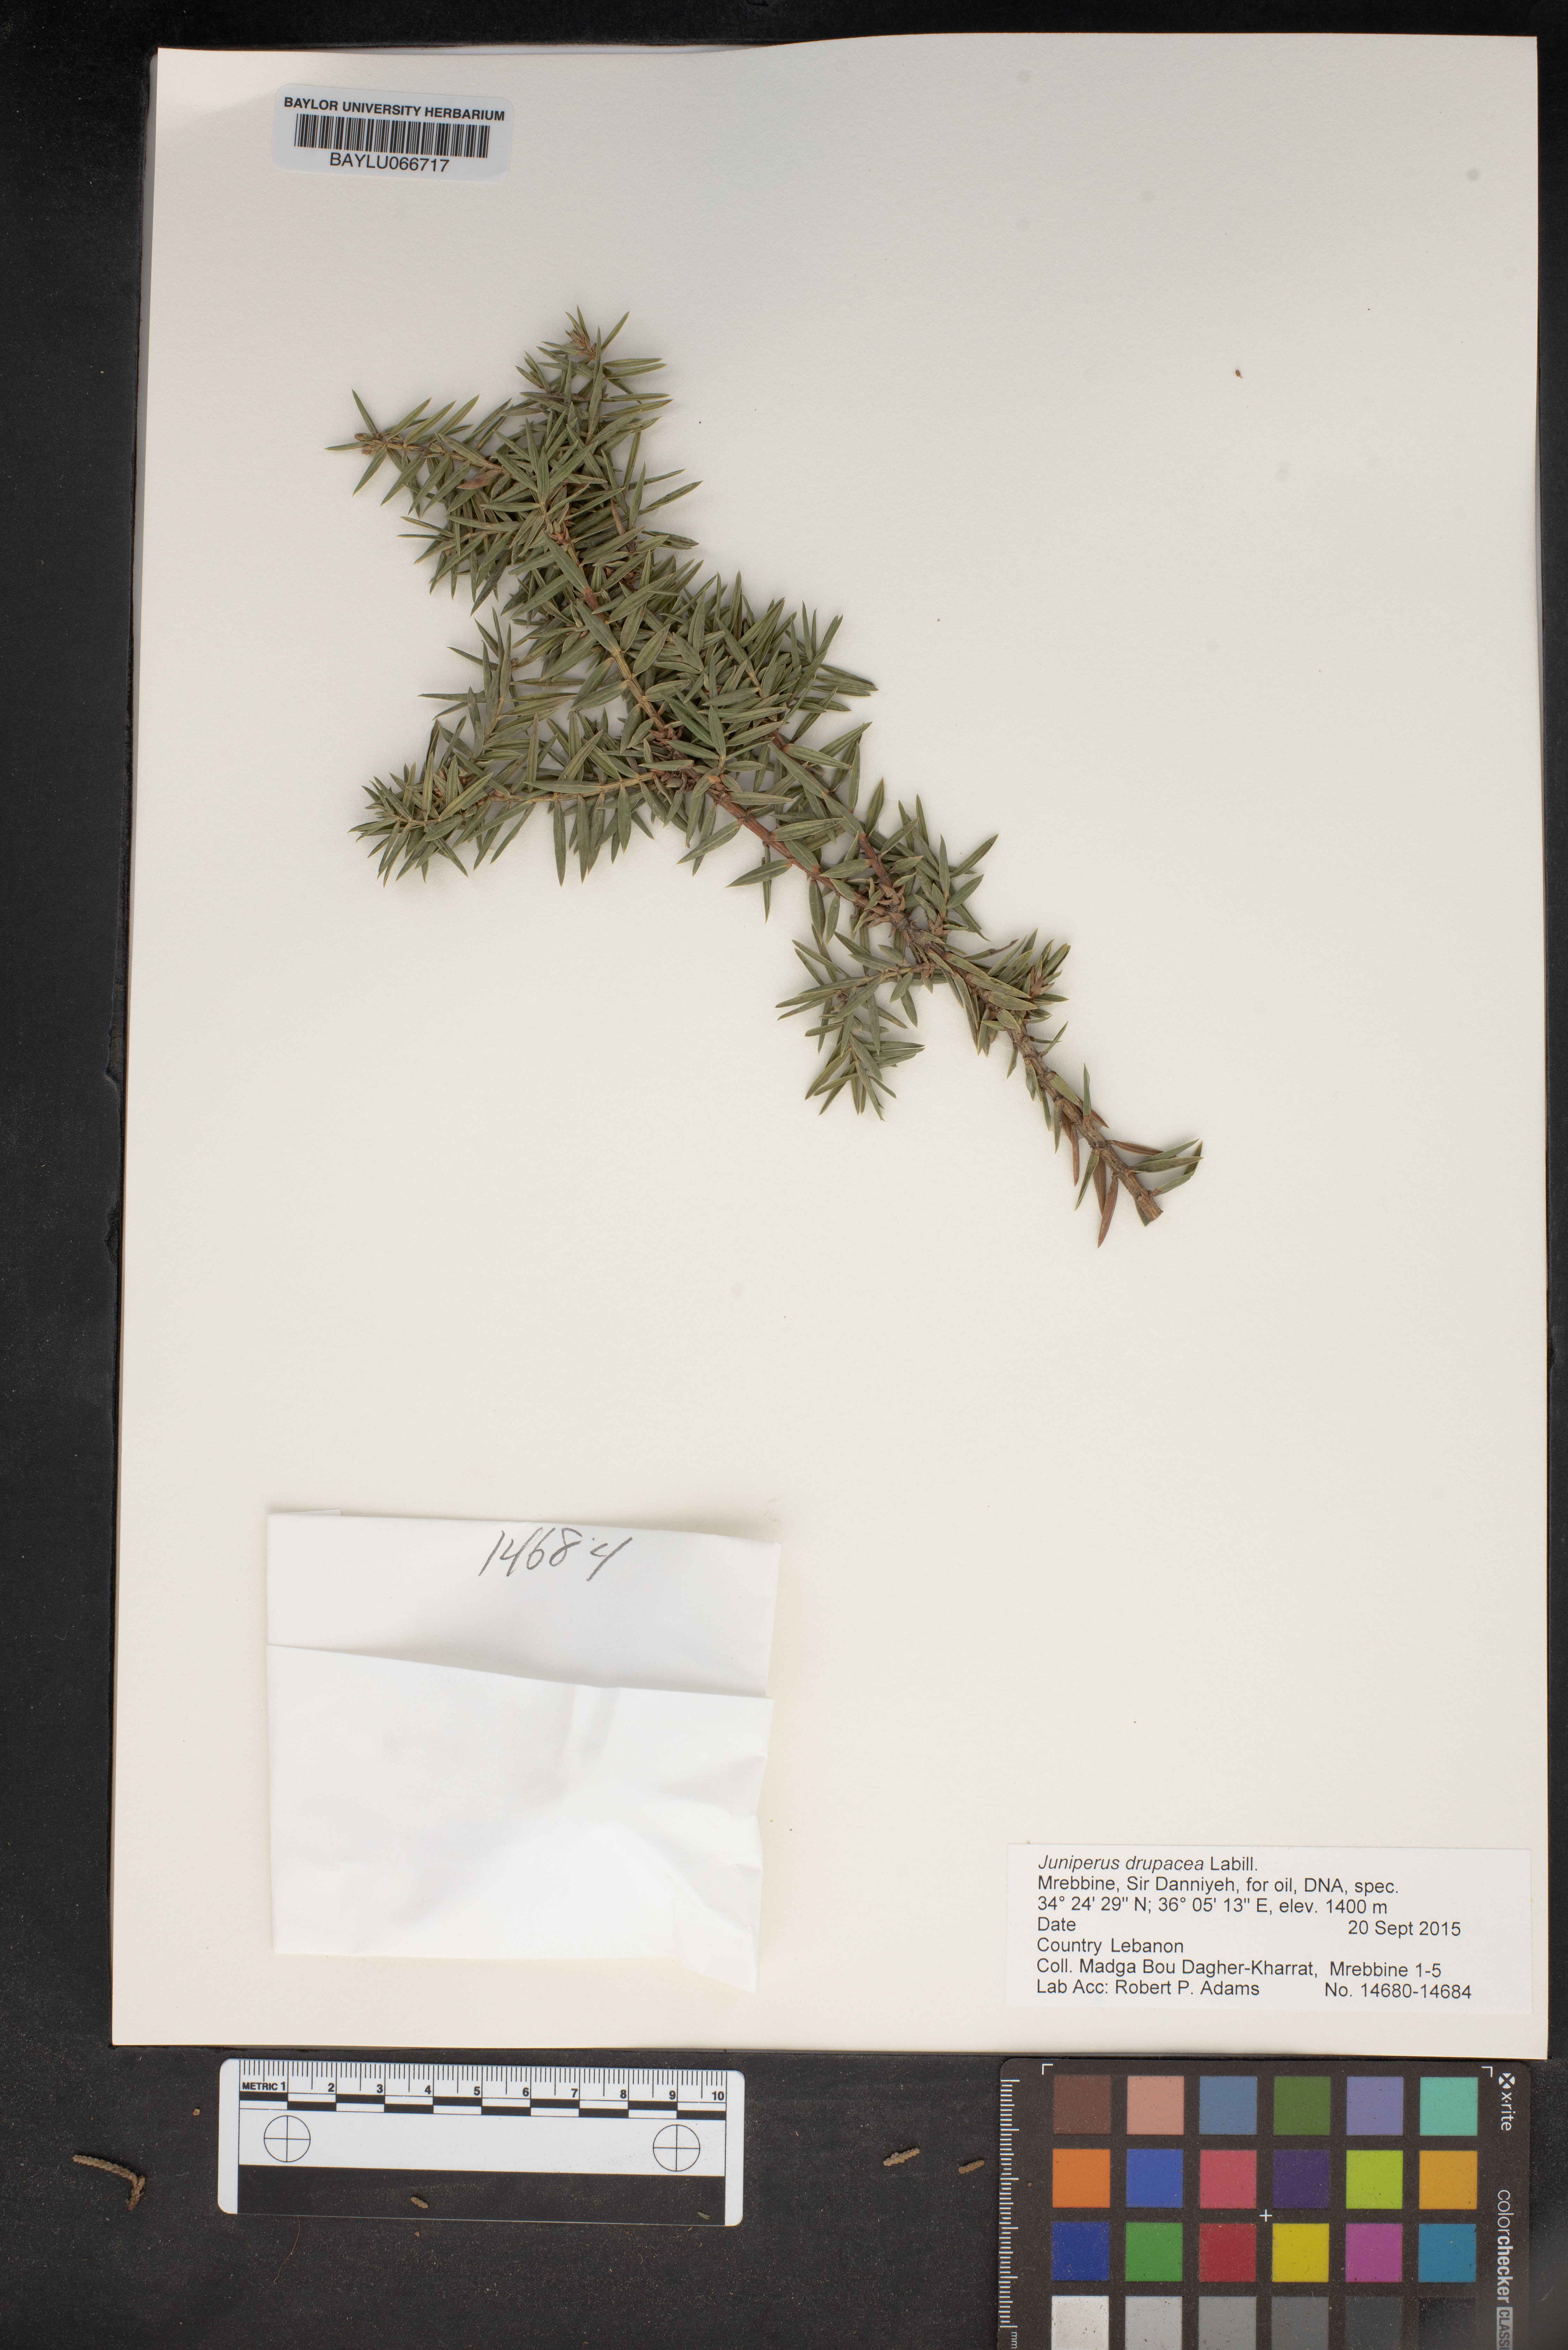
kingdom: Plantae
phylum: Tracheophyta
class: Pinopsida
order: Pinales
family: Cupressaceae
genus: Juniperus
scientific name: Juniperus drupacea
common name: Syrian juniper
